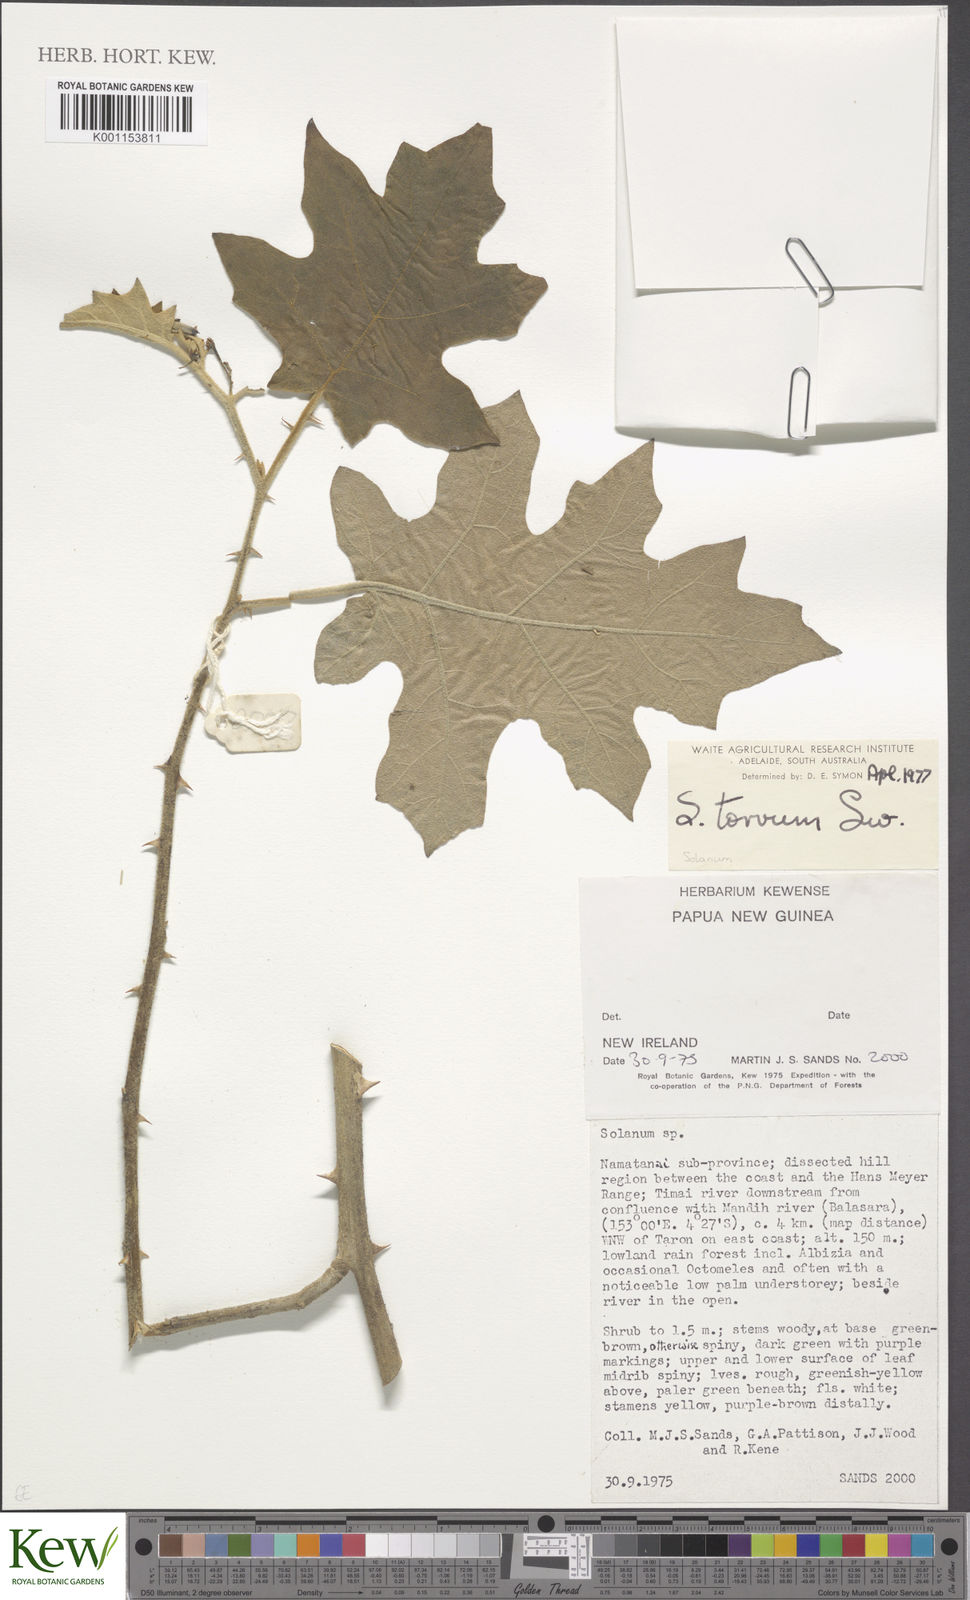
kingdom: Plantae
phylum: Tracheophyta
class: Magnoliopsida
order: Solanales
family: Solanaceae
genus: Solanum
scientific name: Solanum torvum
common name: Turkey berry
